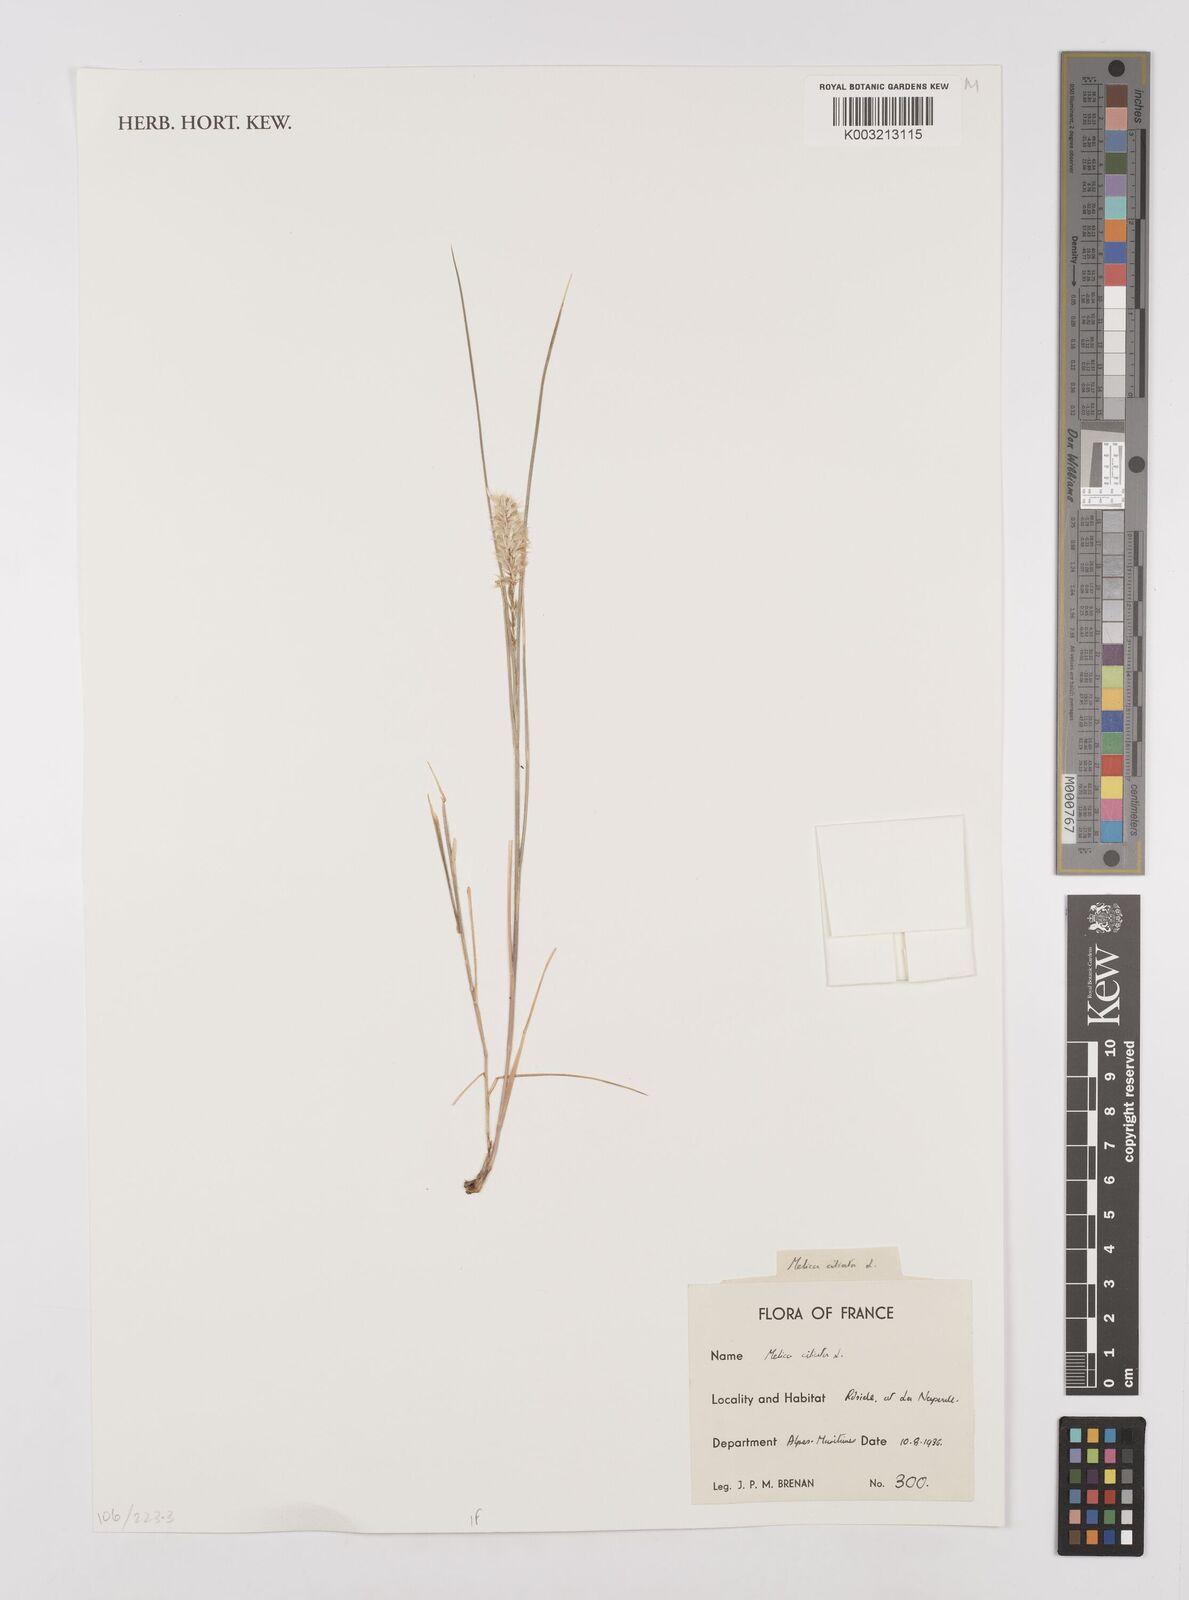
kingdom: Plantae
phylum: Tracheophyta
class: Liliopsida
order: Poales
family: Poaceae
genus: Melica
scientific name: Melica ciliata
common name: Hairy melicgrass
